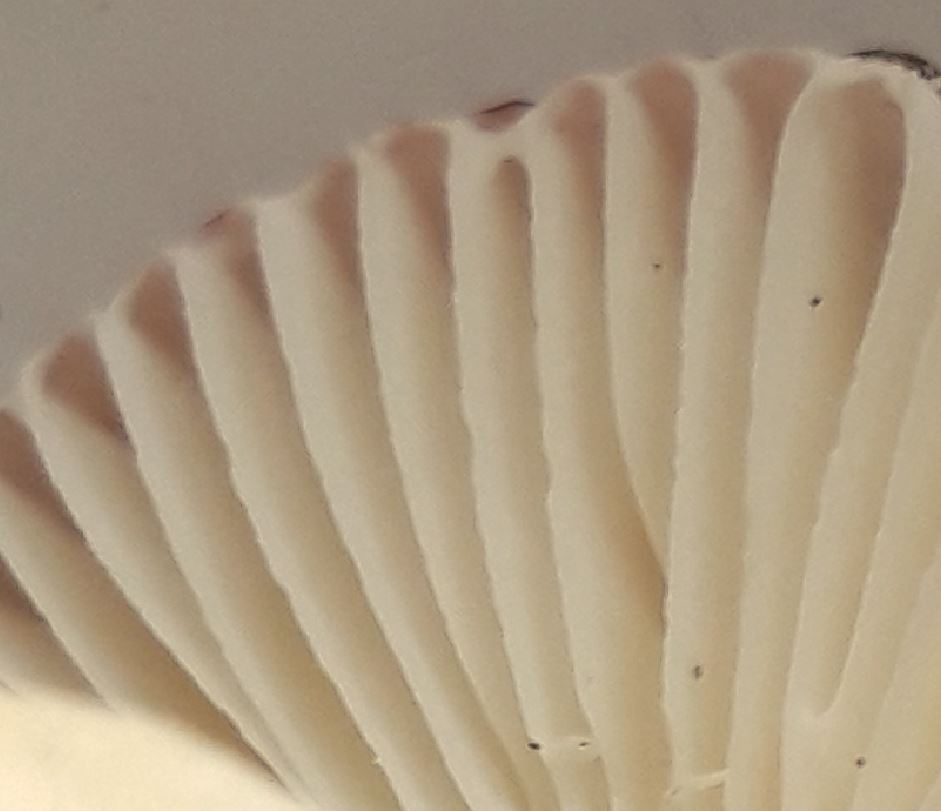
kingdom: Fungi
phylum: Basidiomycota
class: Agaricomycetes
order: Russulales
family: Russulaceae
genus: Russula
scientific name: Russula fragilis
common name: savbladet skørhat
